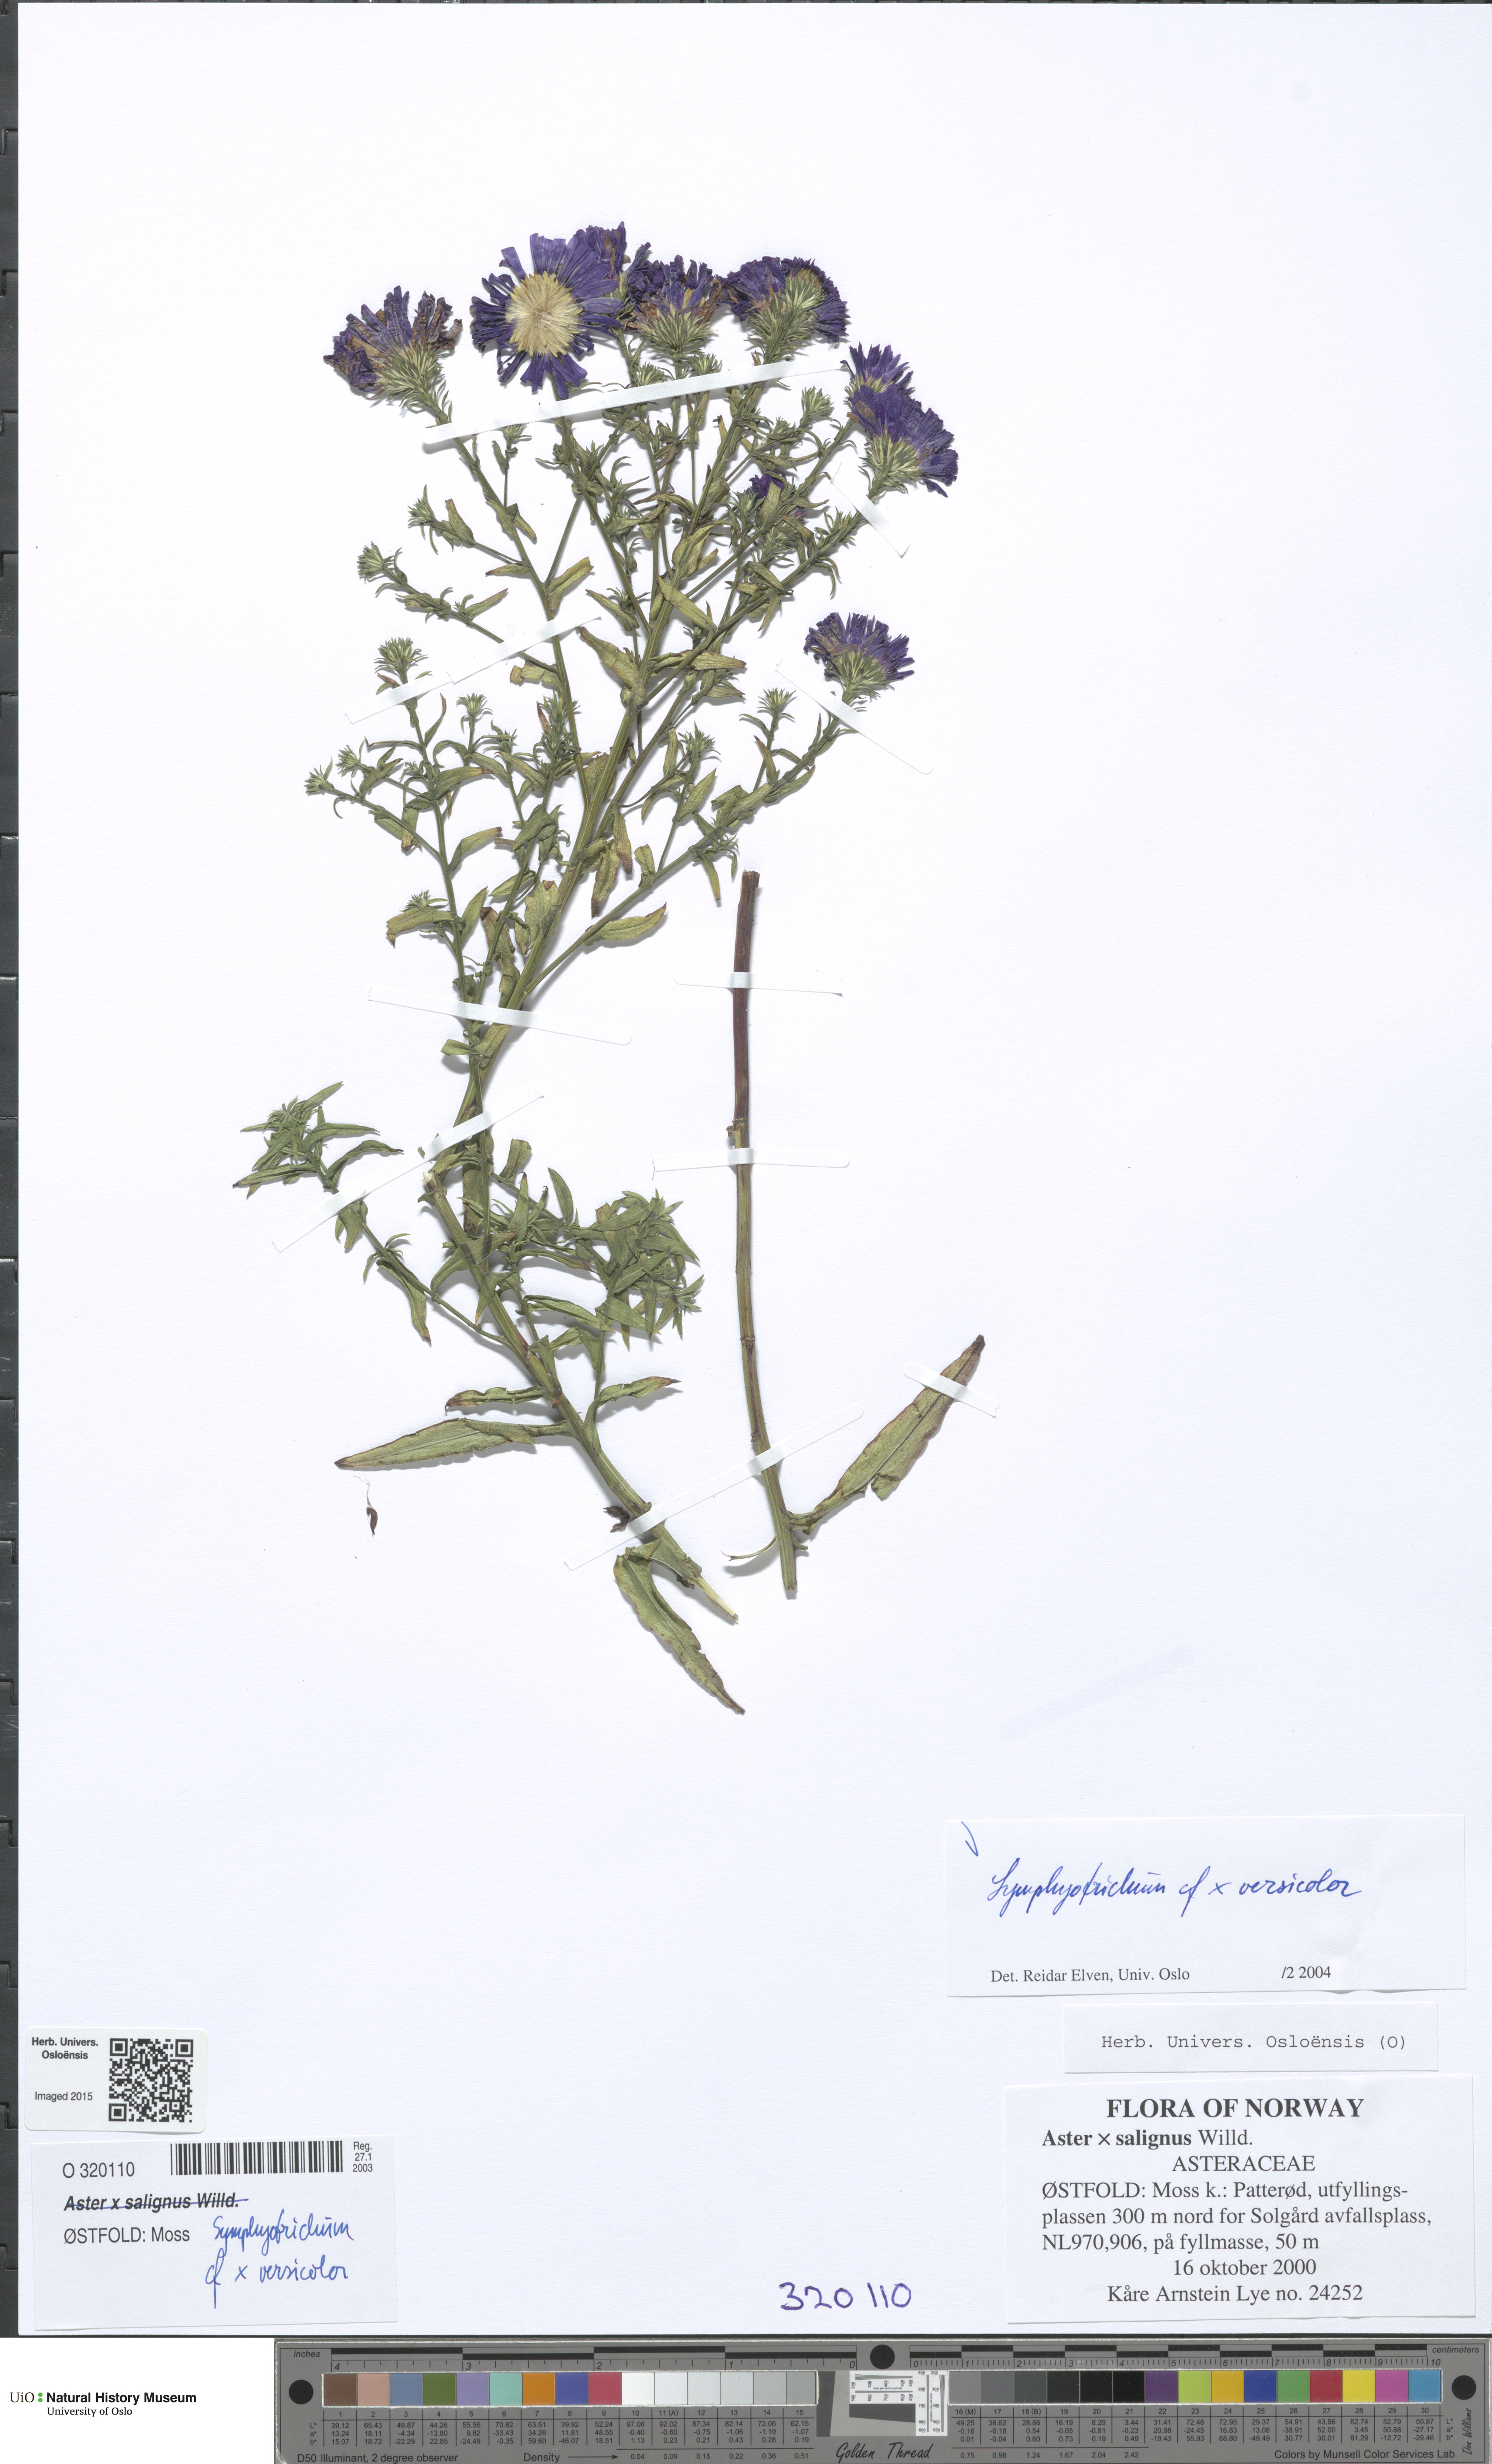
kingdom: Plantae
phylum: Tracheophyta
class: Magnoliopsida
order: Asterales
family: Asteraceae
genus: Symphyotrichum
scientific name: Symphyotrichum novi-belgii
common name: Michaelmas daisy
